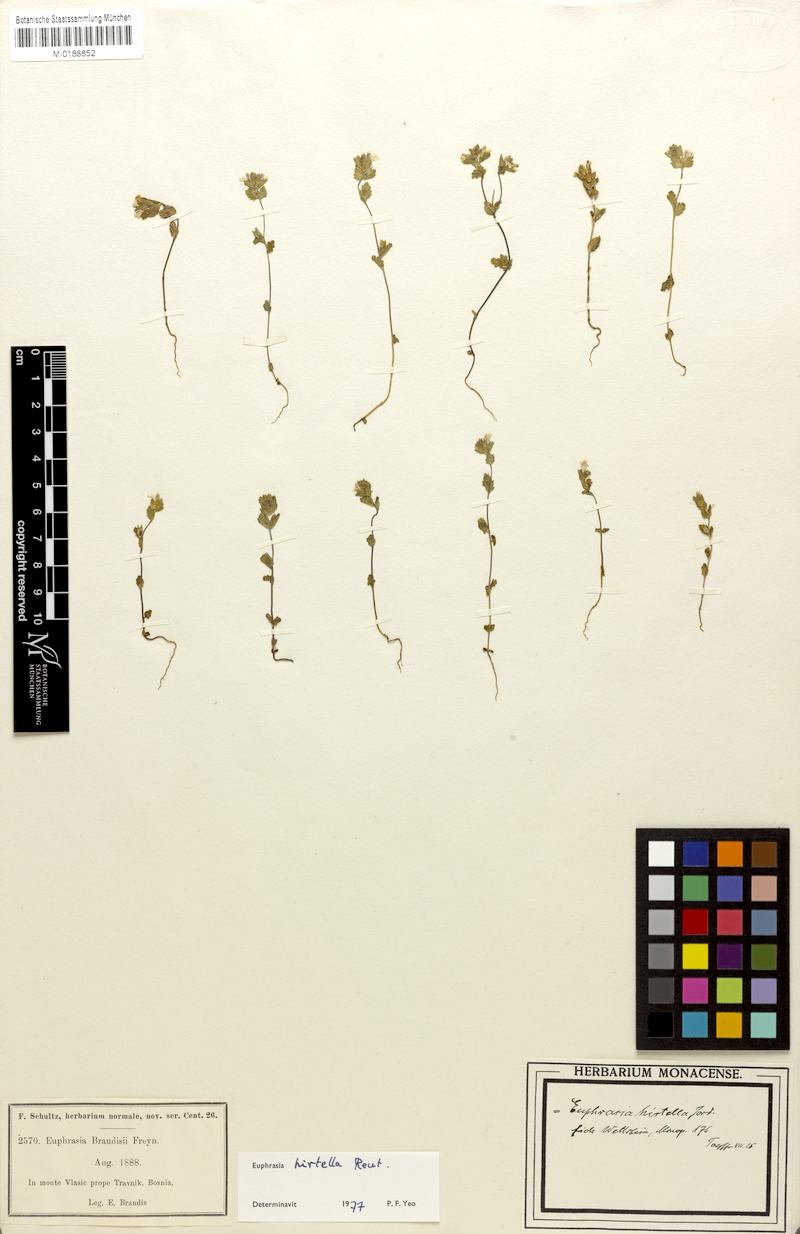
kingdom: Plantae
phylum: Tracheophyta
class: Magnoliopsida
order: Lamiales
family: Orobanchaceae
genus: Euphrasia
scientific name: Euphrasia hirtella
